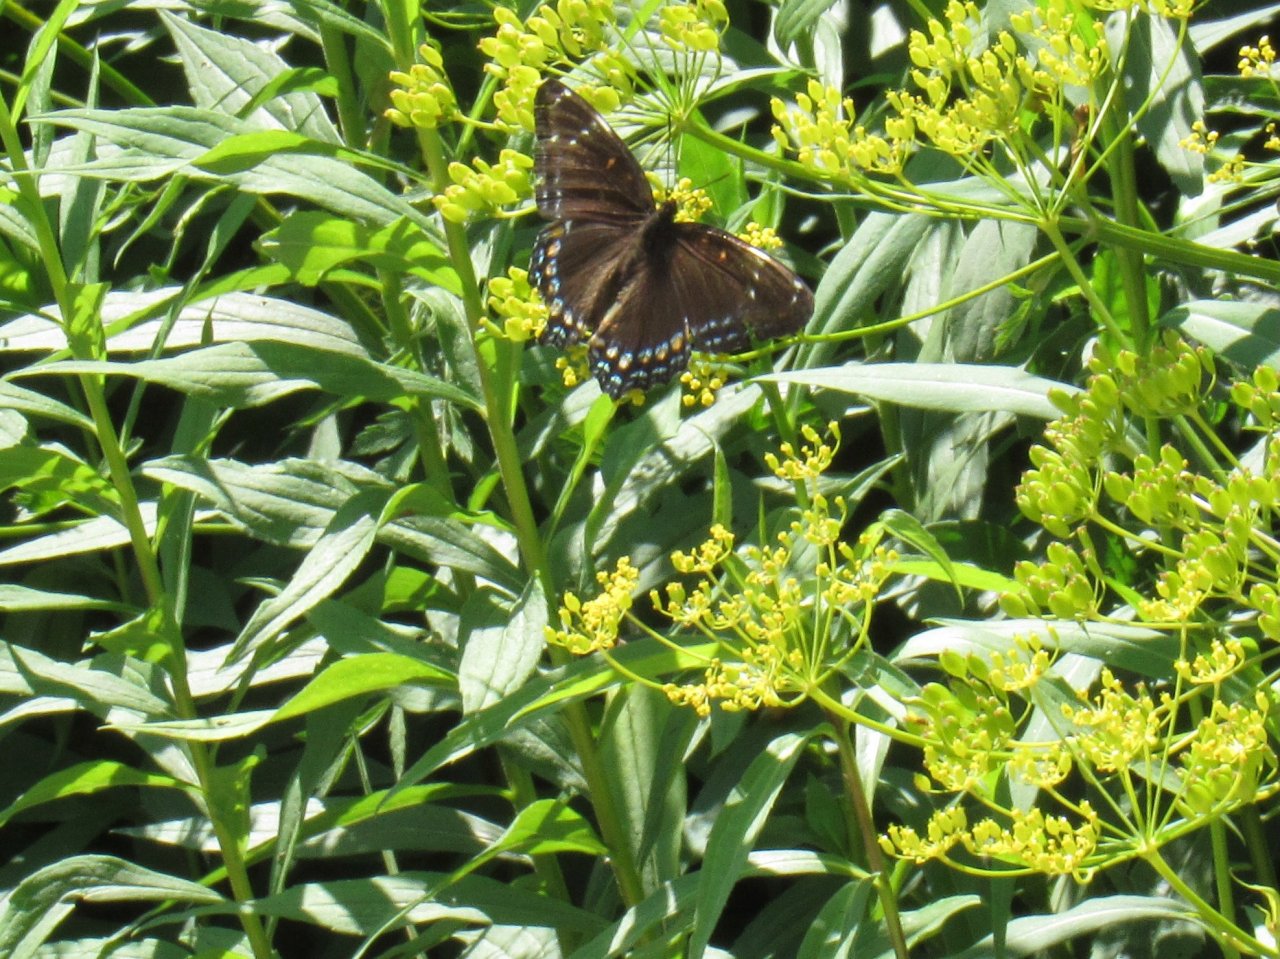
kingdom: Animalia
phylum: Arthropoda
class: Insecta
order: Lepidoptera
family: Nymphalidae
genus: Limenitis
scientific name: Limenitis arthemis
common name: Red-spotted Admiral
